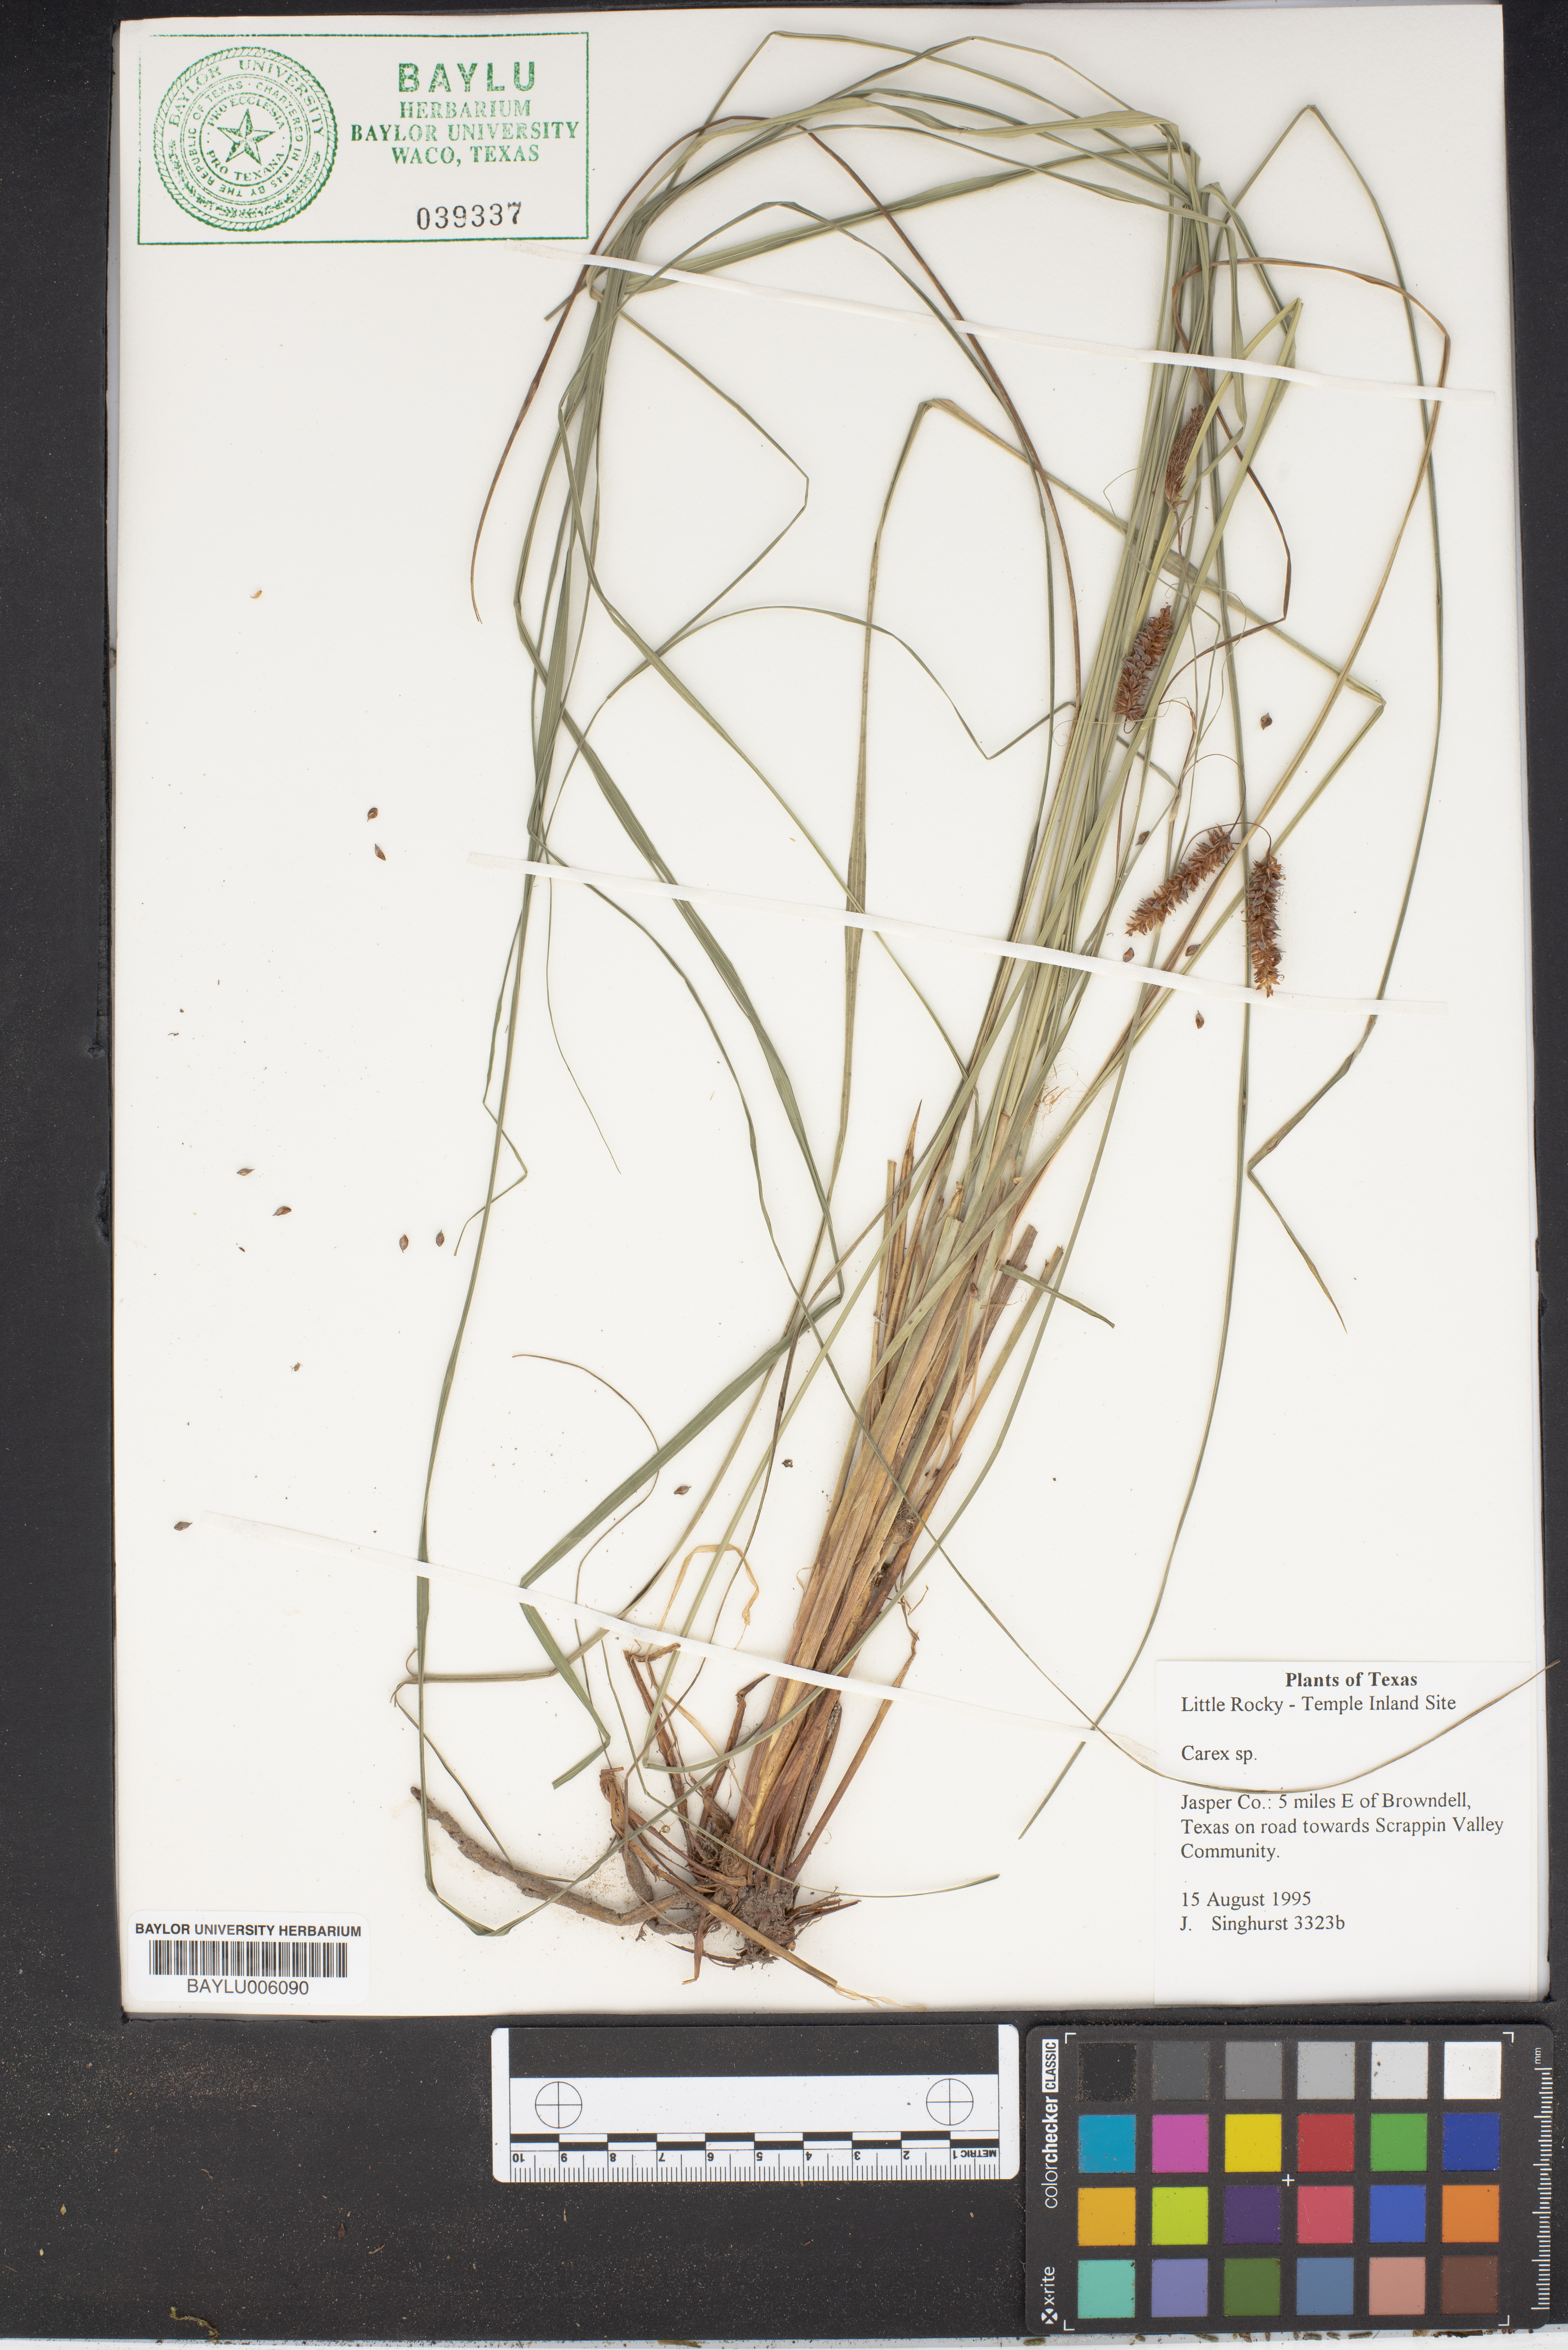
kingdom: Plantae
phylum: Tracheophyta
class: Liliopsida
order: Poales
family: Cyperaceae
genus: Carex
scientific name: Carex
